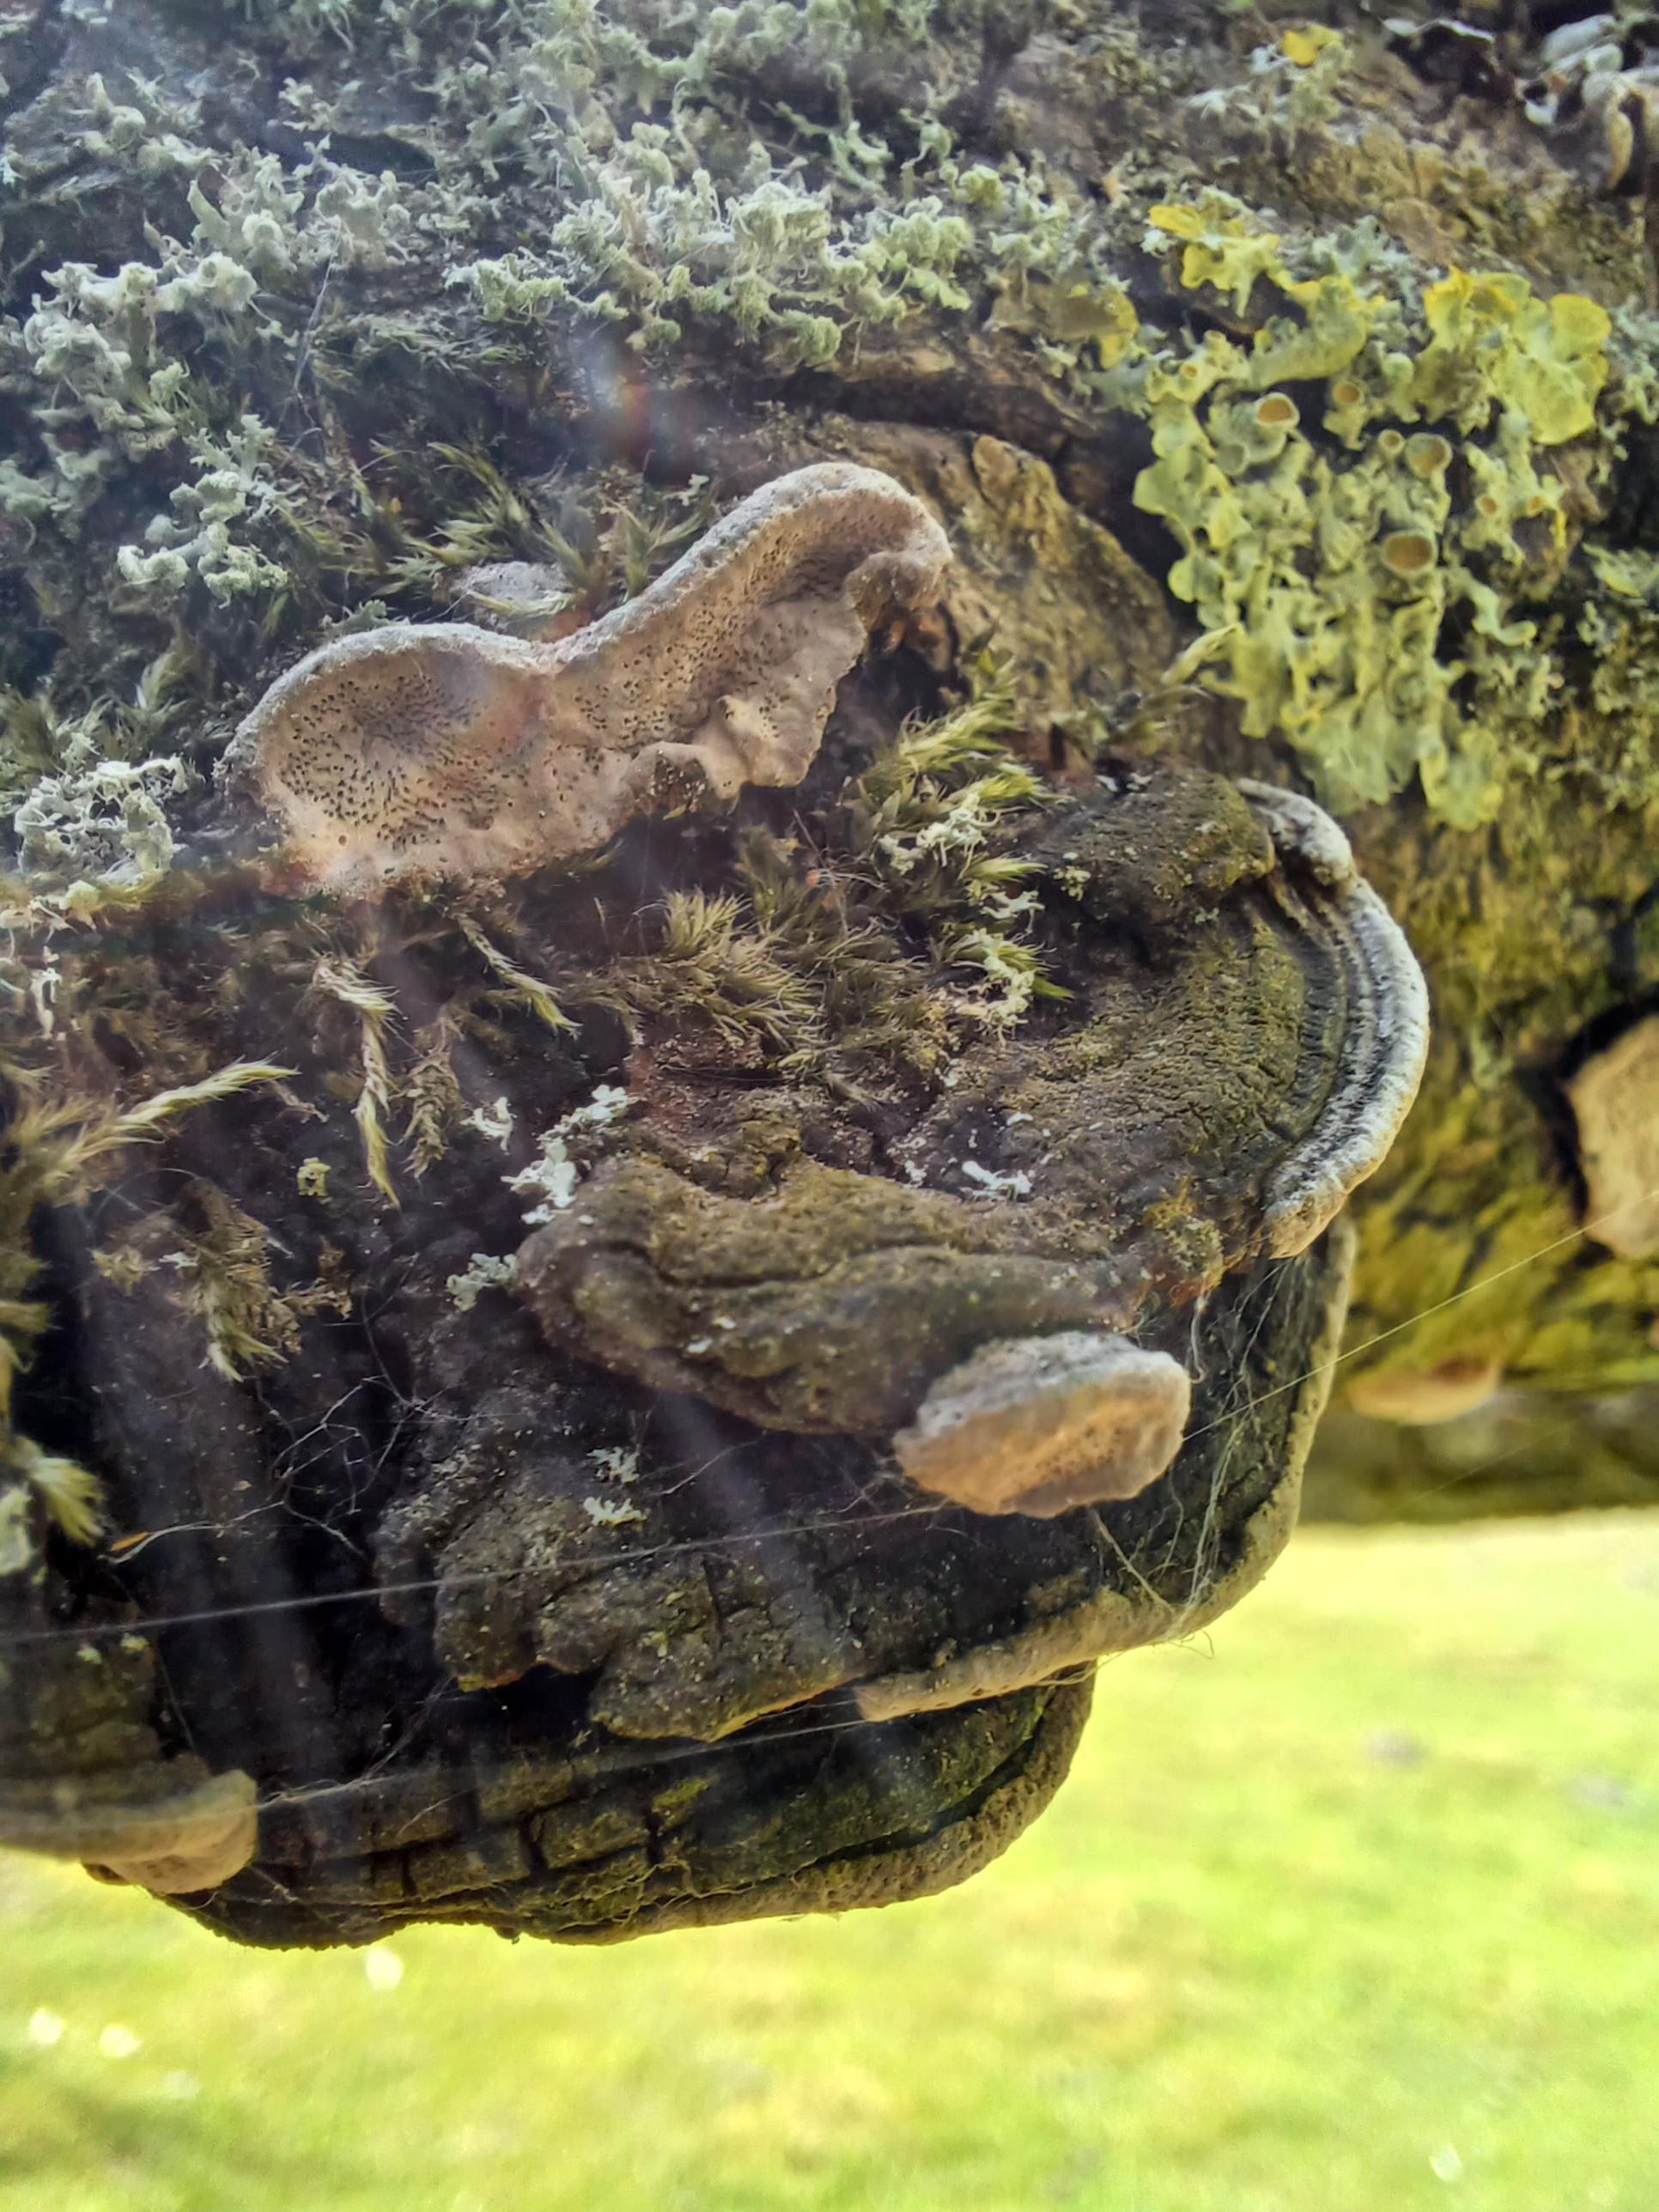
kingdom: Fungi
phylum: Basidiomycota
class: Agaricomycetes
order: Hymenochaetales
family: Hymenochaetaceae
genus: Phellinus
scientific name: Phellinus
